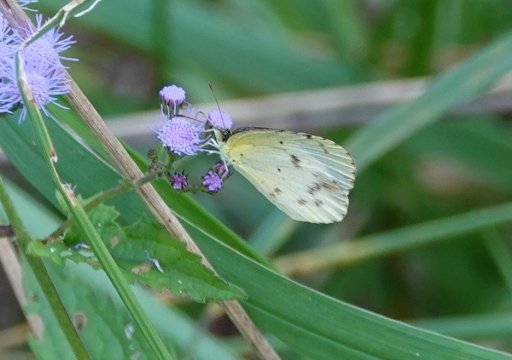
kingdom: Animalia
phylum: Arthropoda
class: Insecta
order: Lepidoptera
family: Pieridae
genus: Pyrisitia
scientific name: Pyrisitia lisa
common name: Little Yellow
